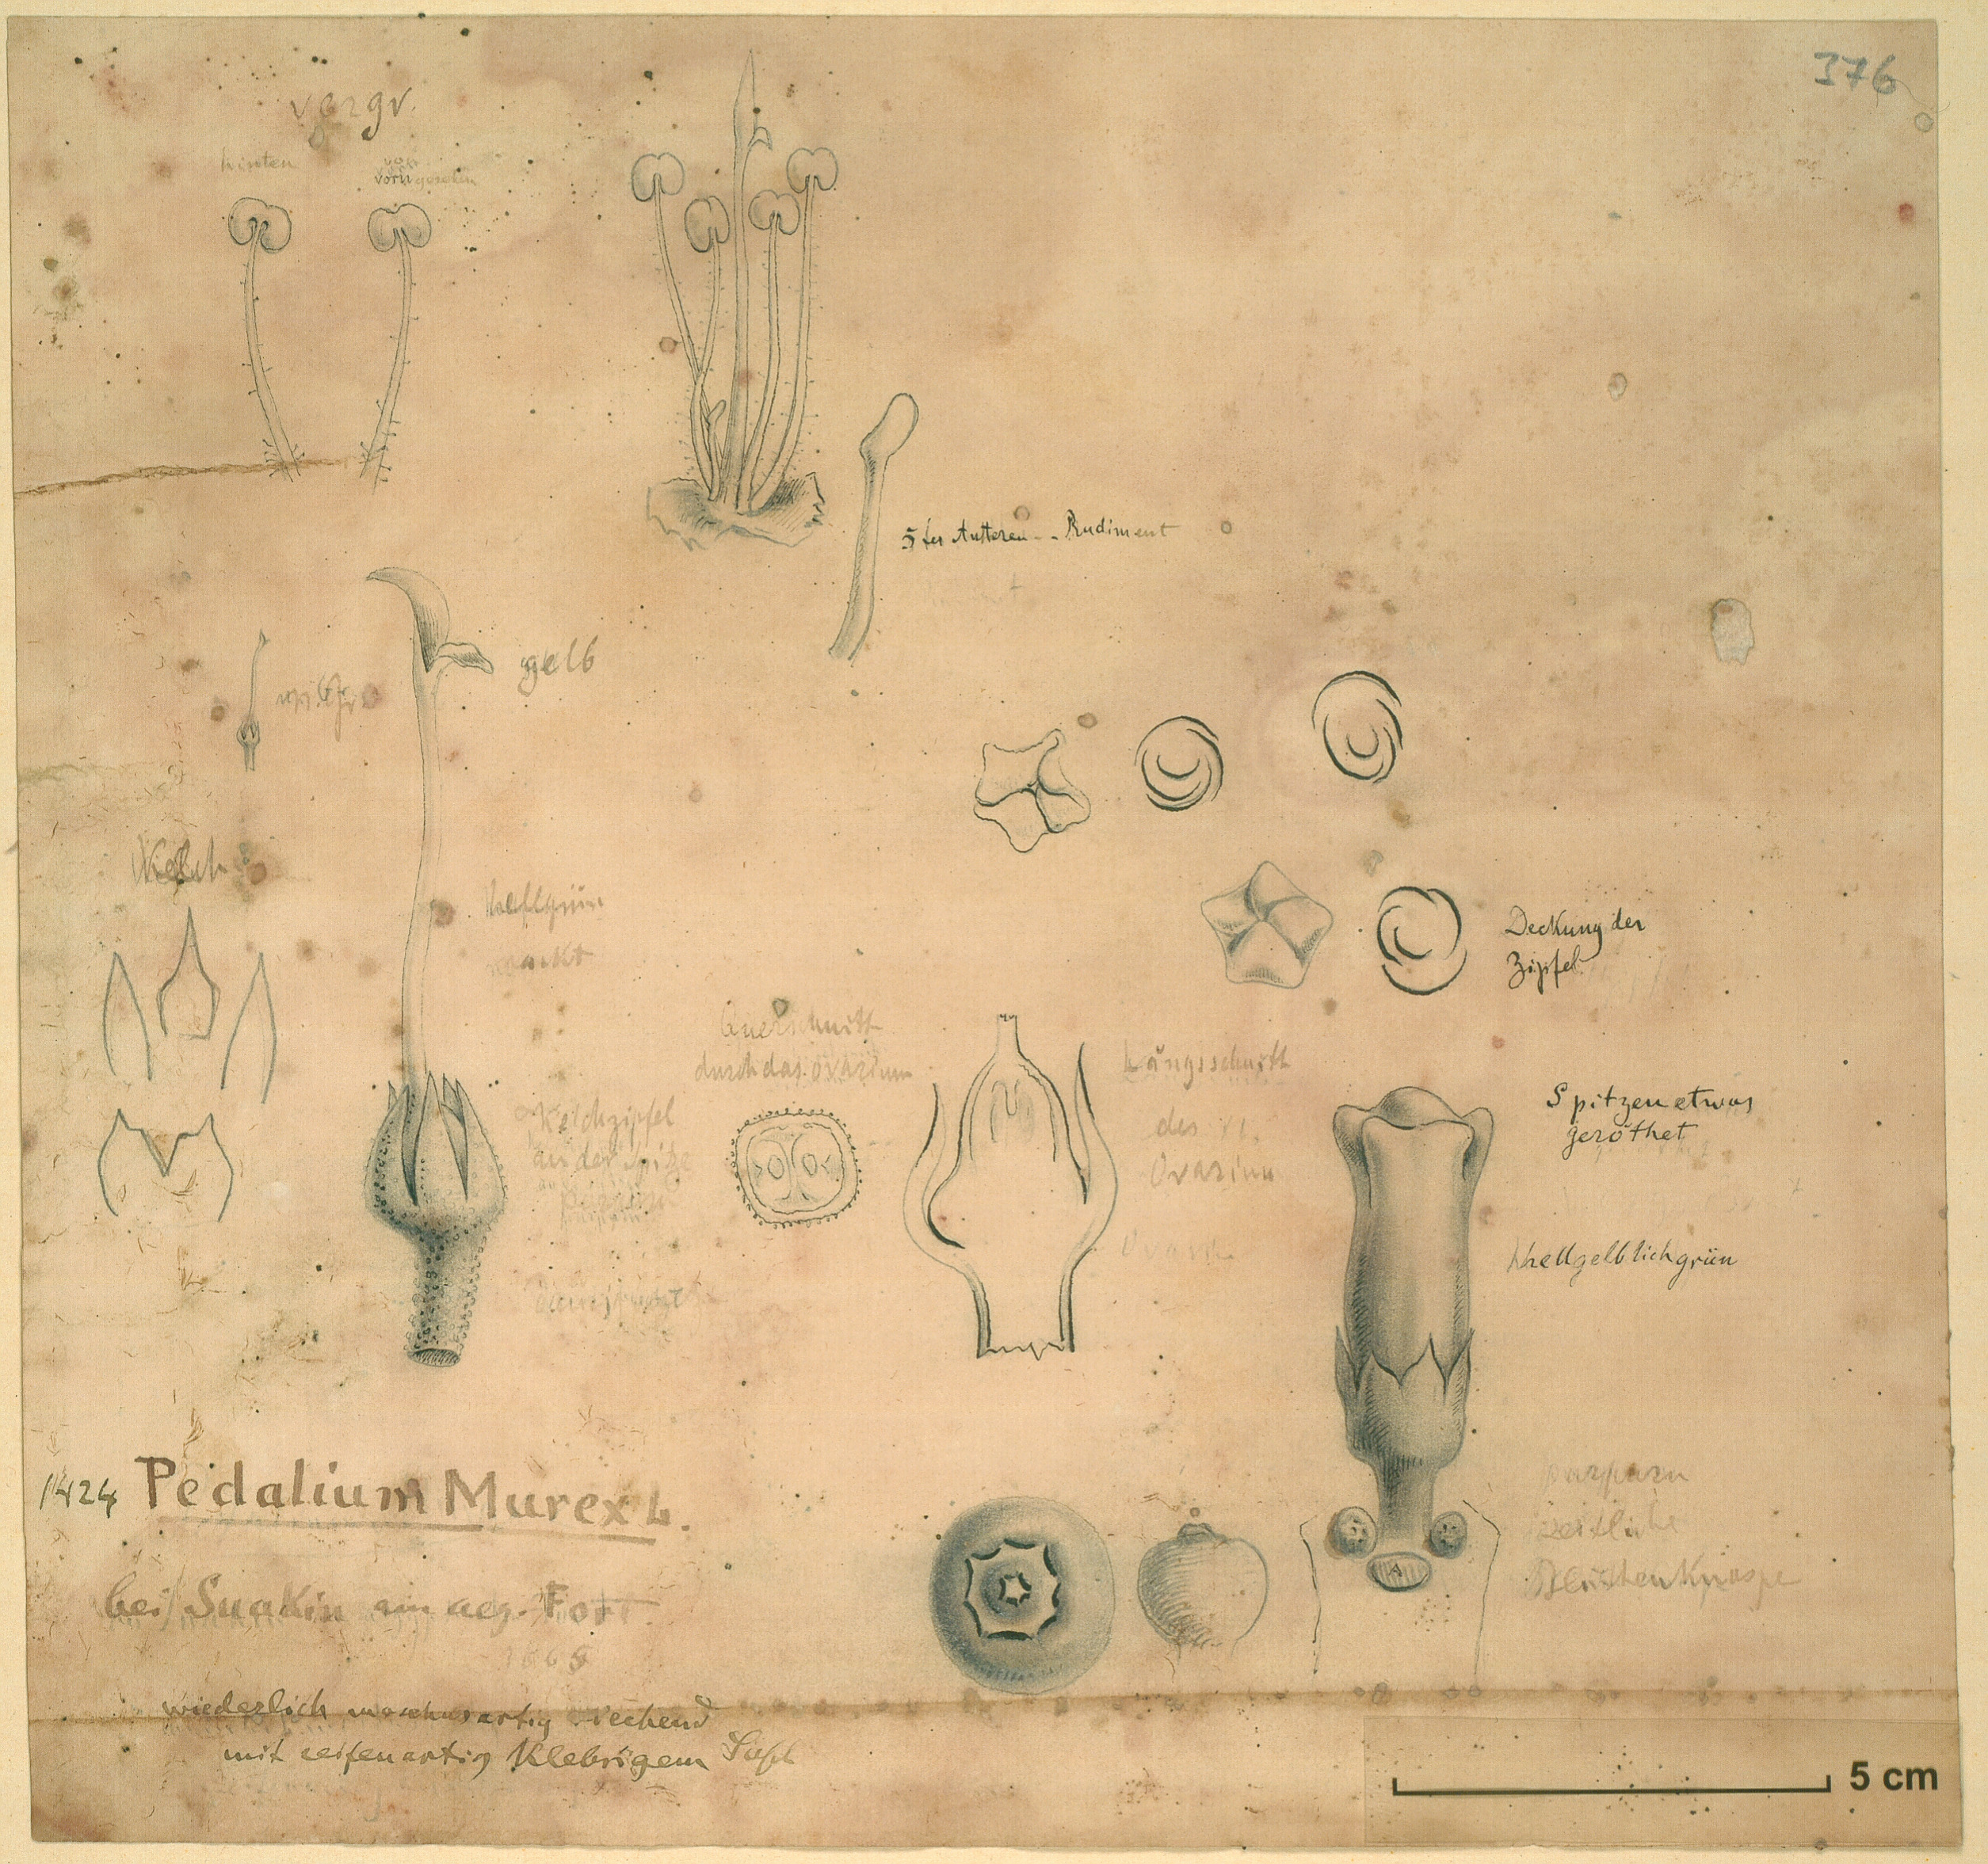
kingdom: Plantae
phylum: Tracheophyta
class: Magnoliopsida
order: Lamiales
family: Pedaliaceae
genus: Pedalium
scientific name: Pedalium murex
